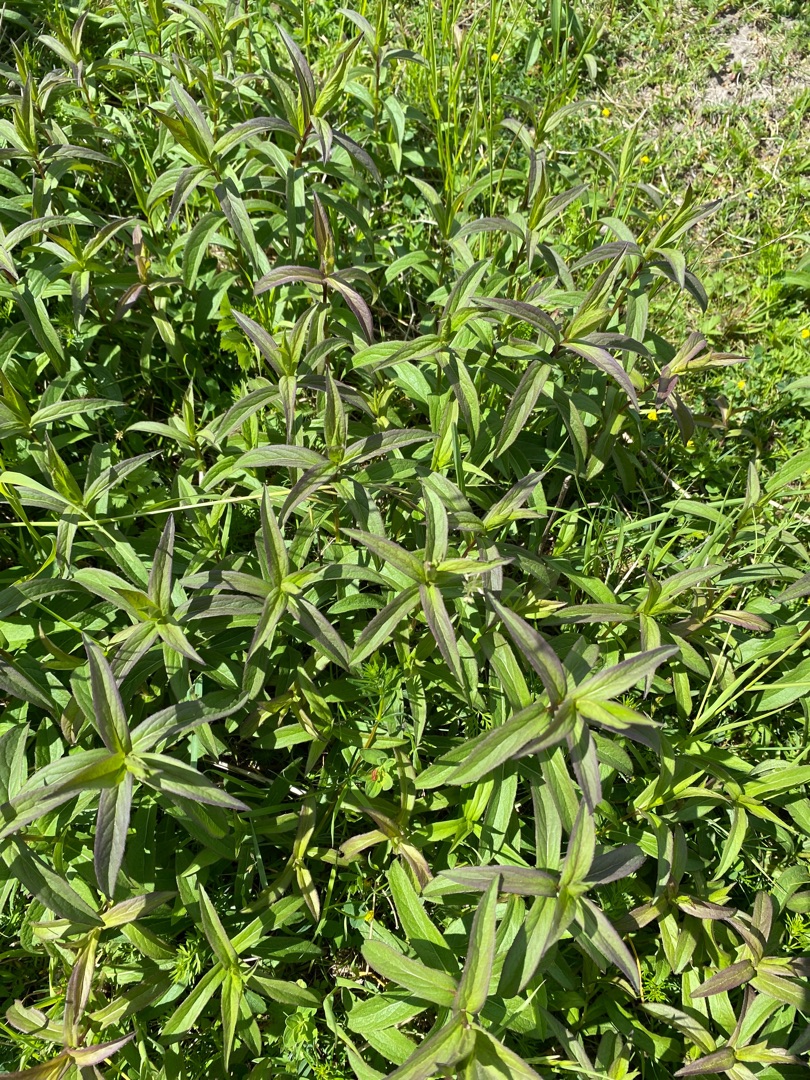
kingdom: Plantae
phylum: Tracheophyta
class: Magnoliopsida
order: Asterales
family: Asteraceae
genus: Pentanema
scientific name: Pentanema salicinum
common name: Pile-alant
